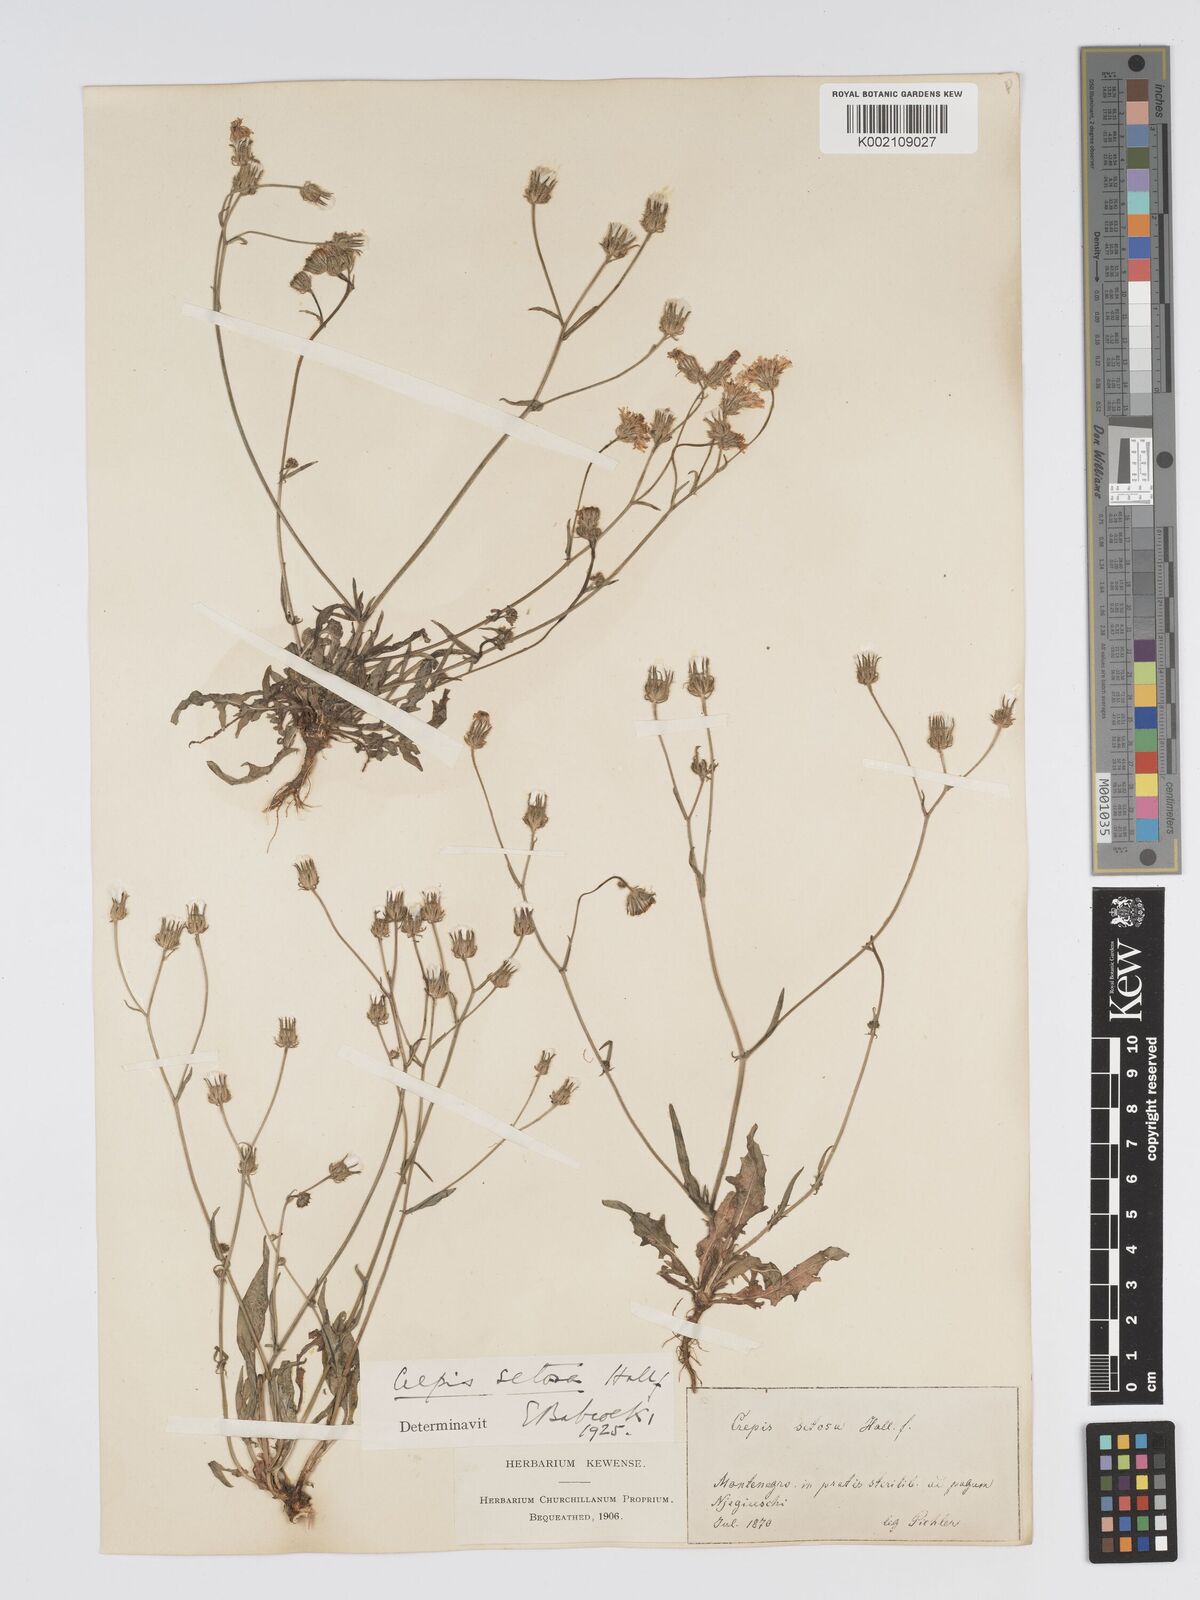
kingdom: Plantae
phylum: Tracheophyta
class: Magnoliopsida
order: Asterales
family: Asteraceae
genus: Crepis
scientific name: Crepis setosa
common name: Bristly hawk's-beard
